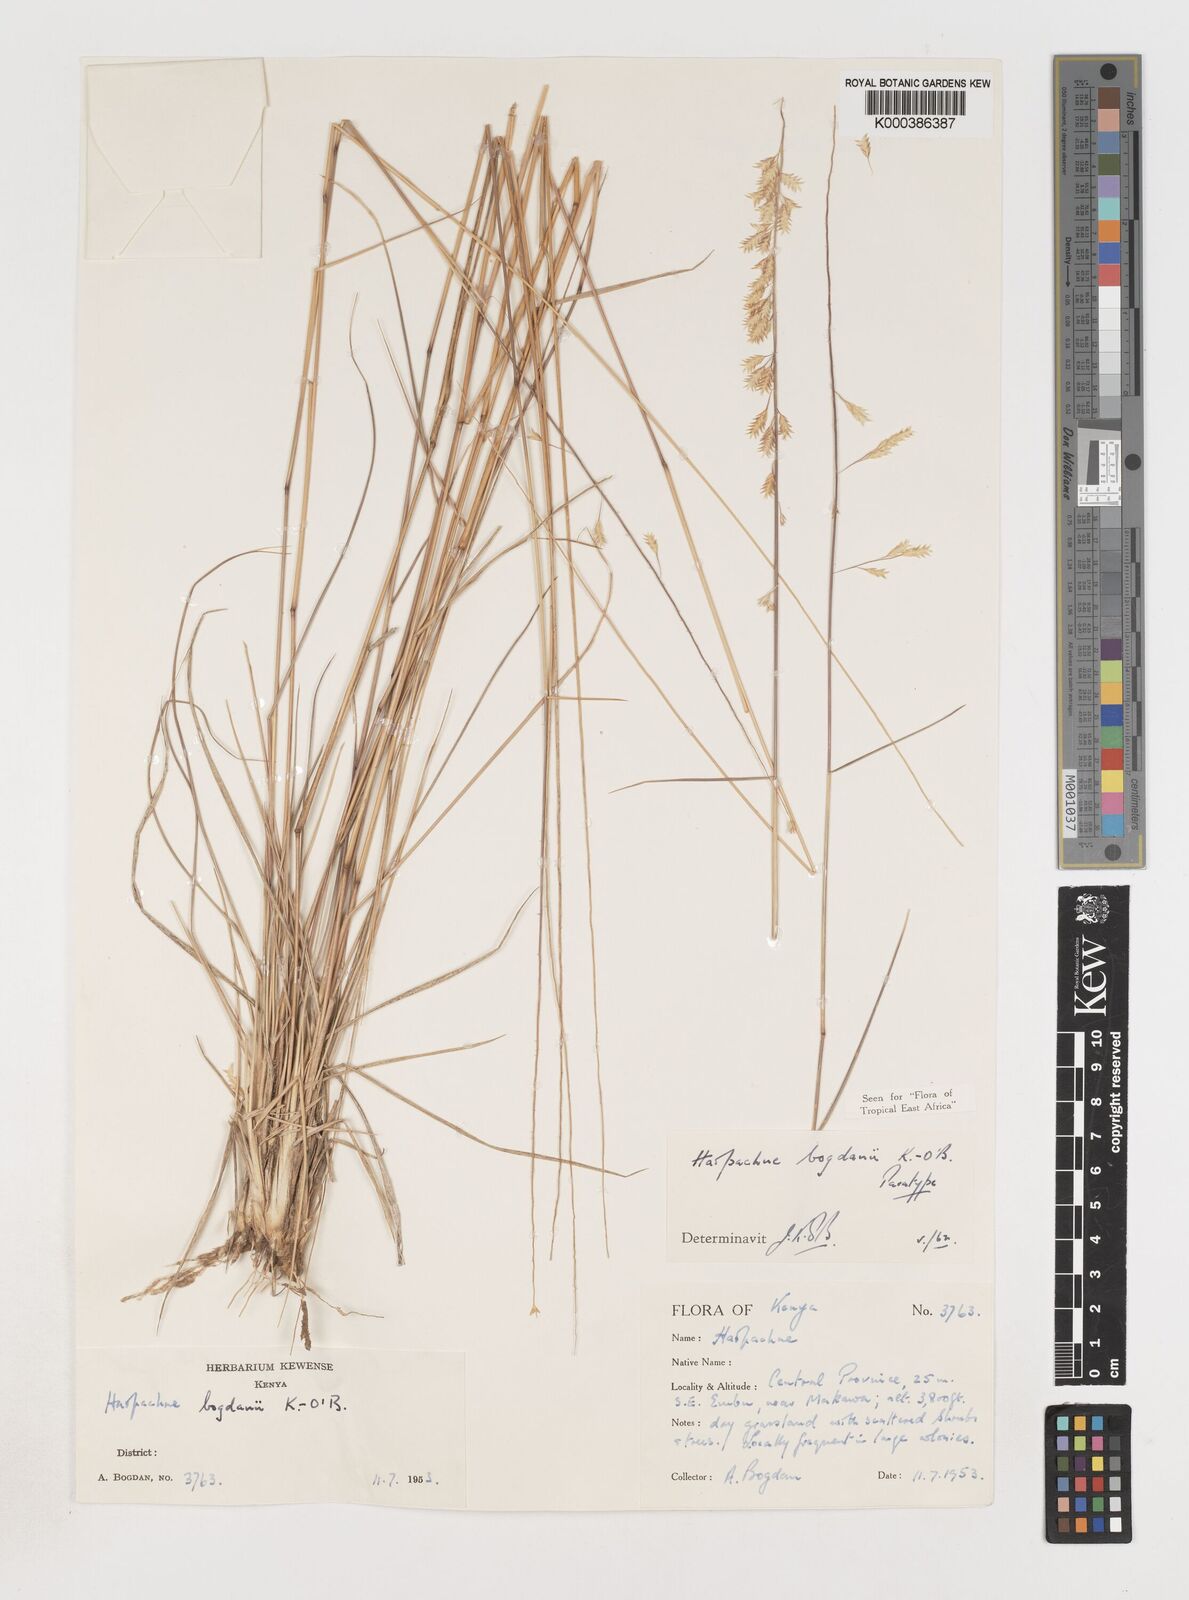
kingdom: Plantae
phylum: Tracheophyta
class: Liliopsida
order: Poales
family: Poaceae
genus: Harpachne
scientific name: Harpachne bogdanii
